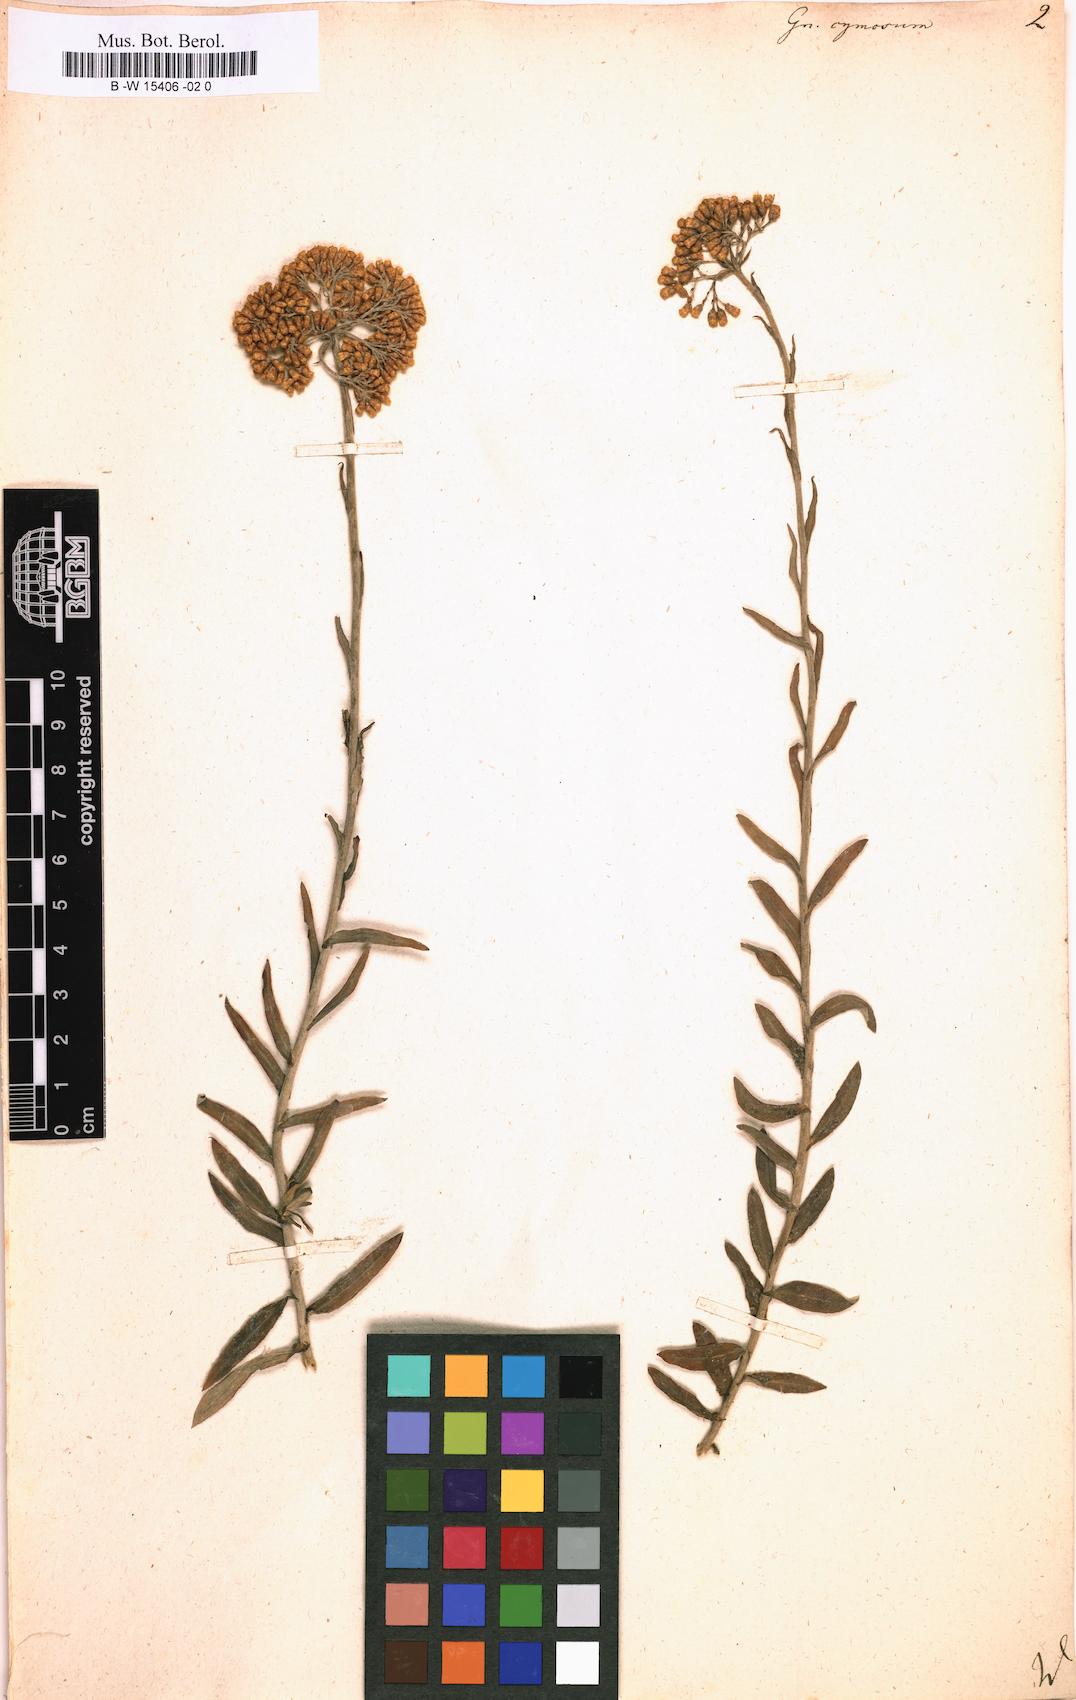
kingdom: Plantae
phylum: Tracheophyta
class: Magnoliopsida
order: Asterales
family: Asteraceae
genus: Helichrysum
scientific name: Helichrysum cymosum
